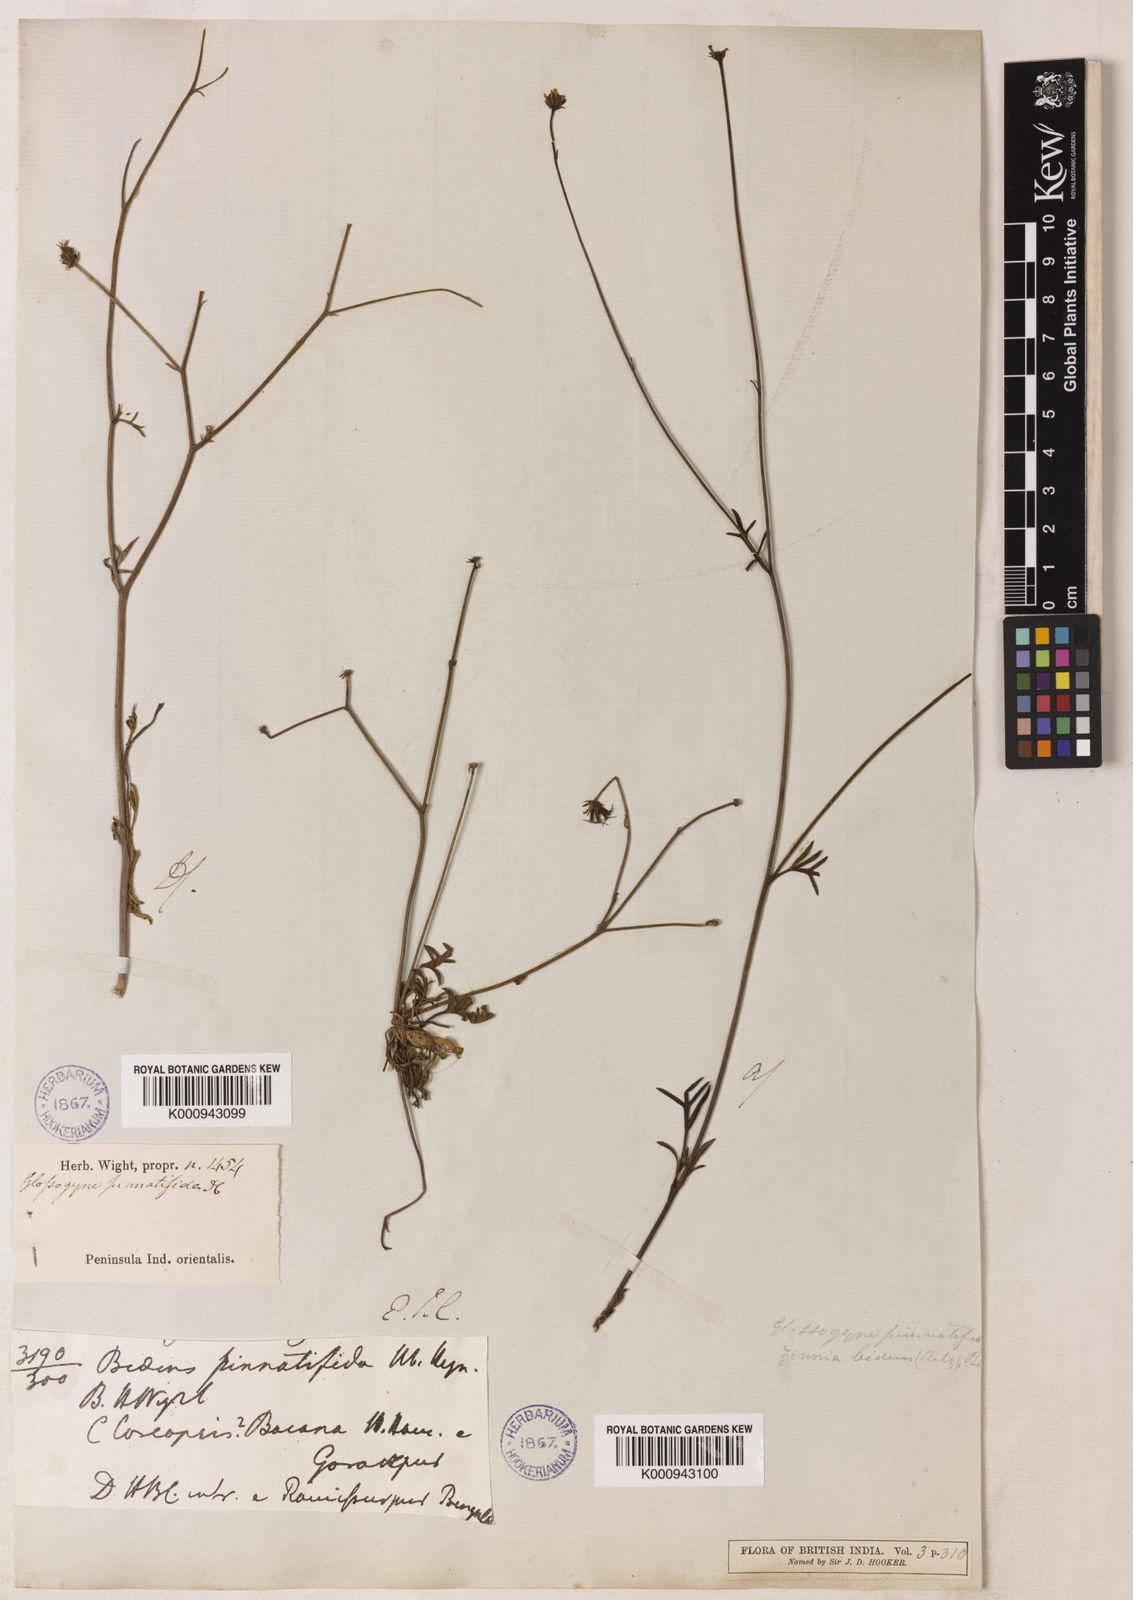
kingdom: Plantae
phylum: Tracheophyta
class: Magnoliopsida
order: Asterales
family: Asteraceae
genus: Glossocardia
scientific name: Glossocardia bidens
